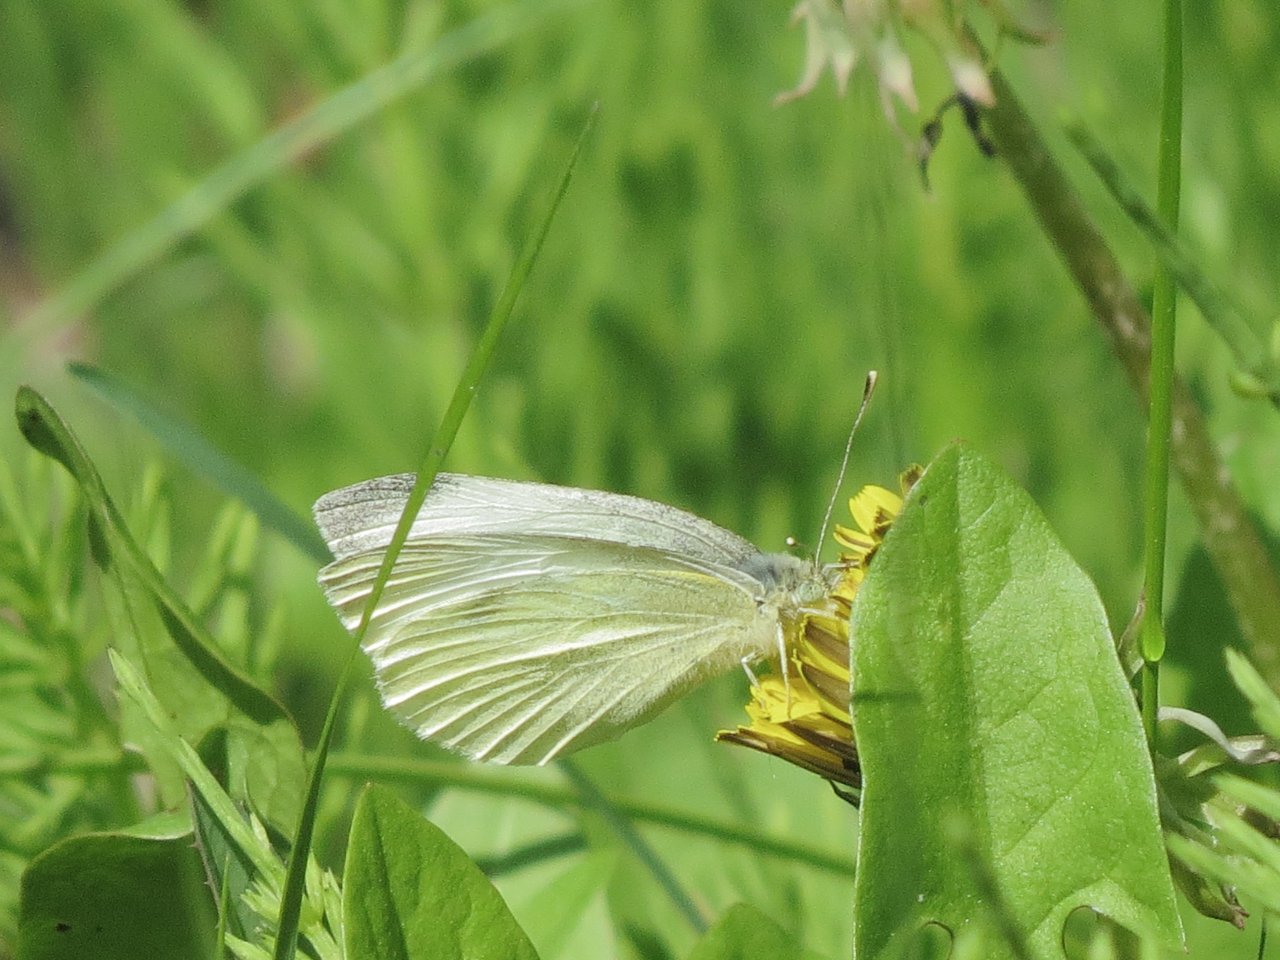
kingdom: Animalia
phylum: Arthropoda
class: Insecta
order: Lepidoptera
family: Pieridae
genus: Pieris
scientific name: Pieris rapae
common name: Cabbage White
